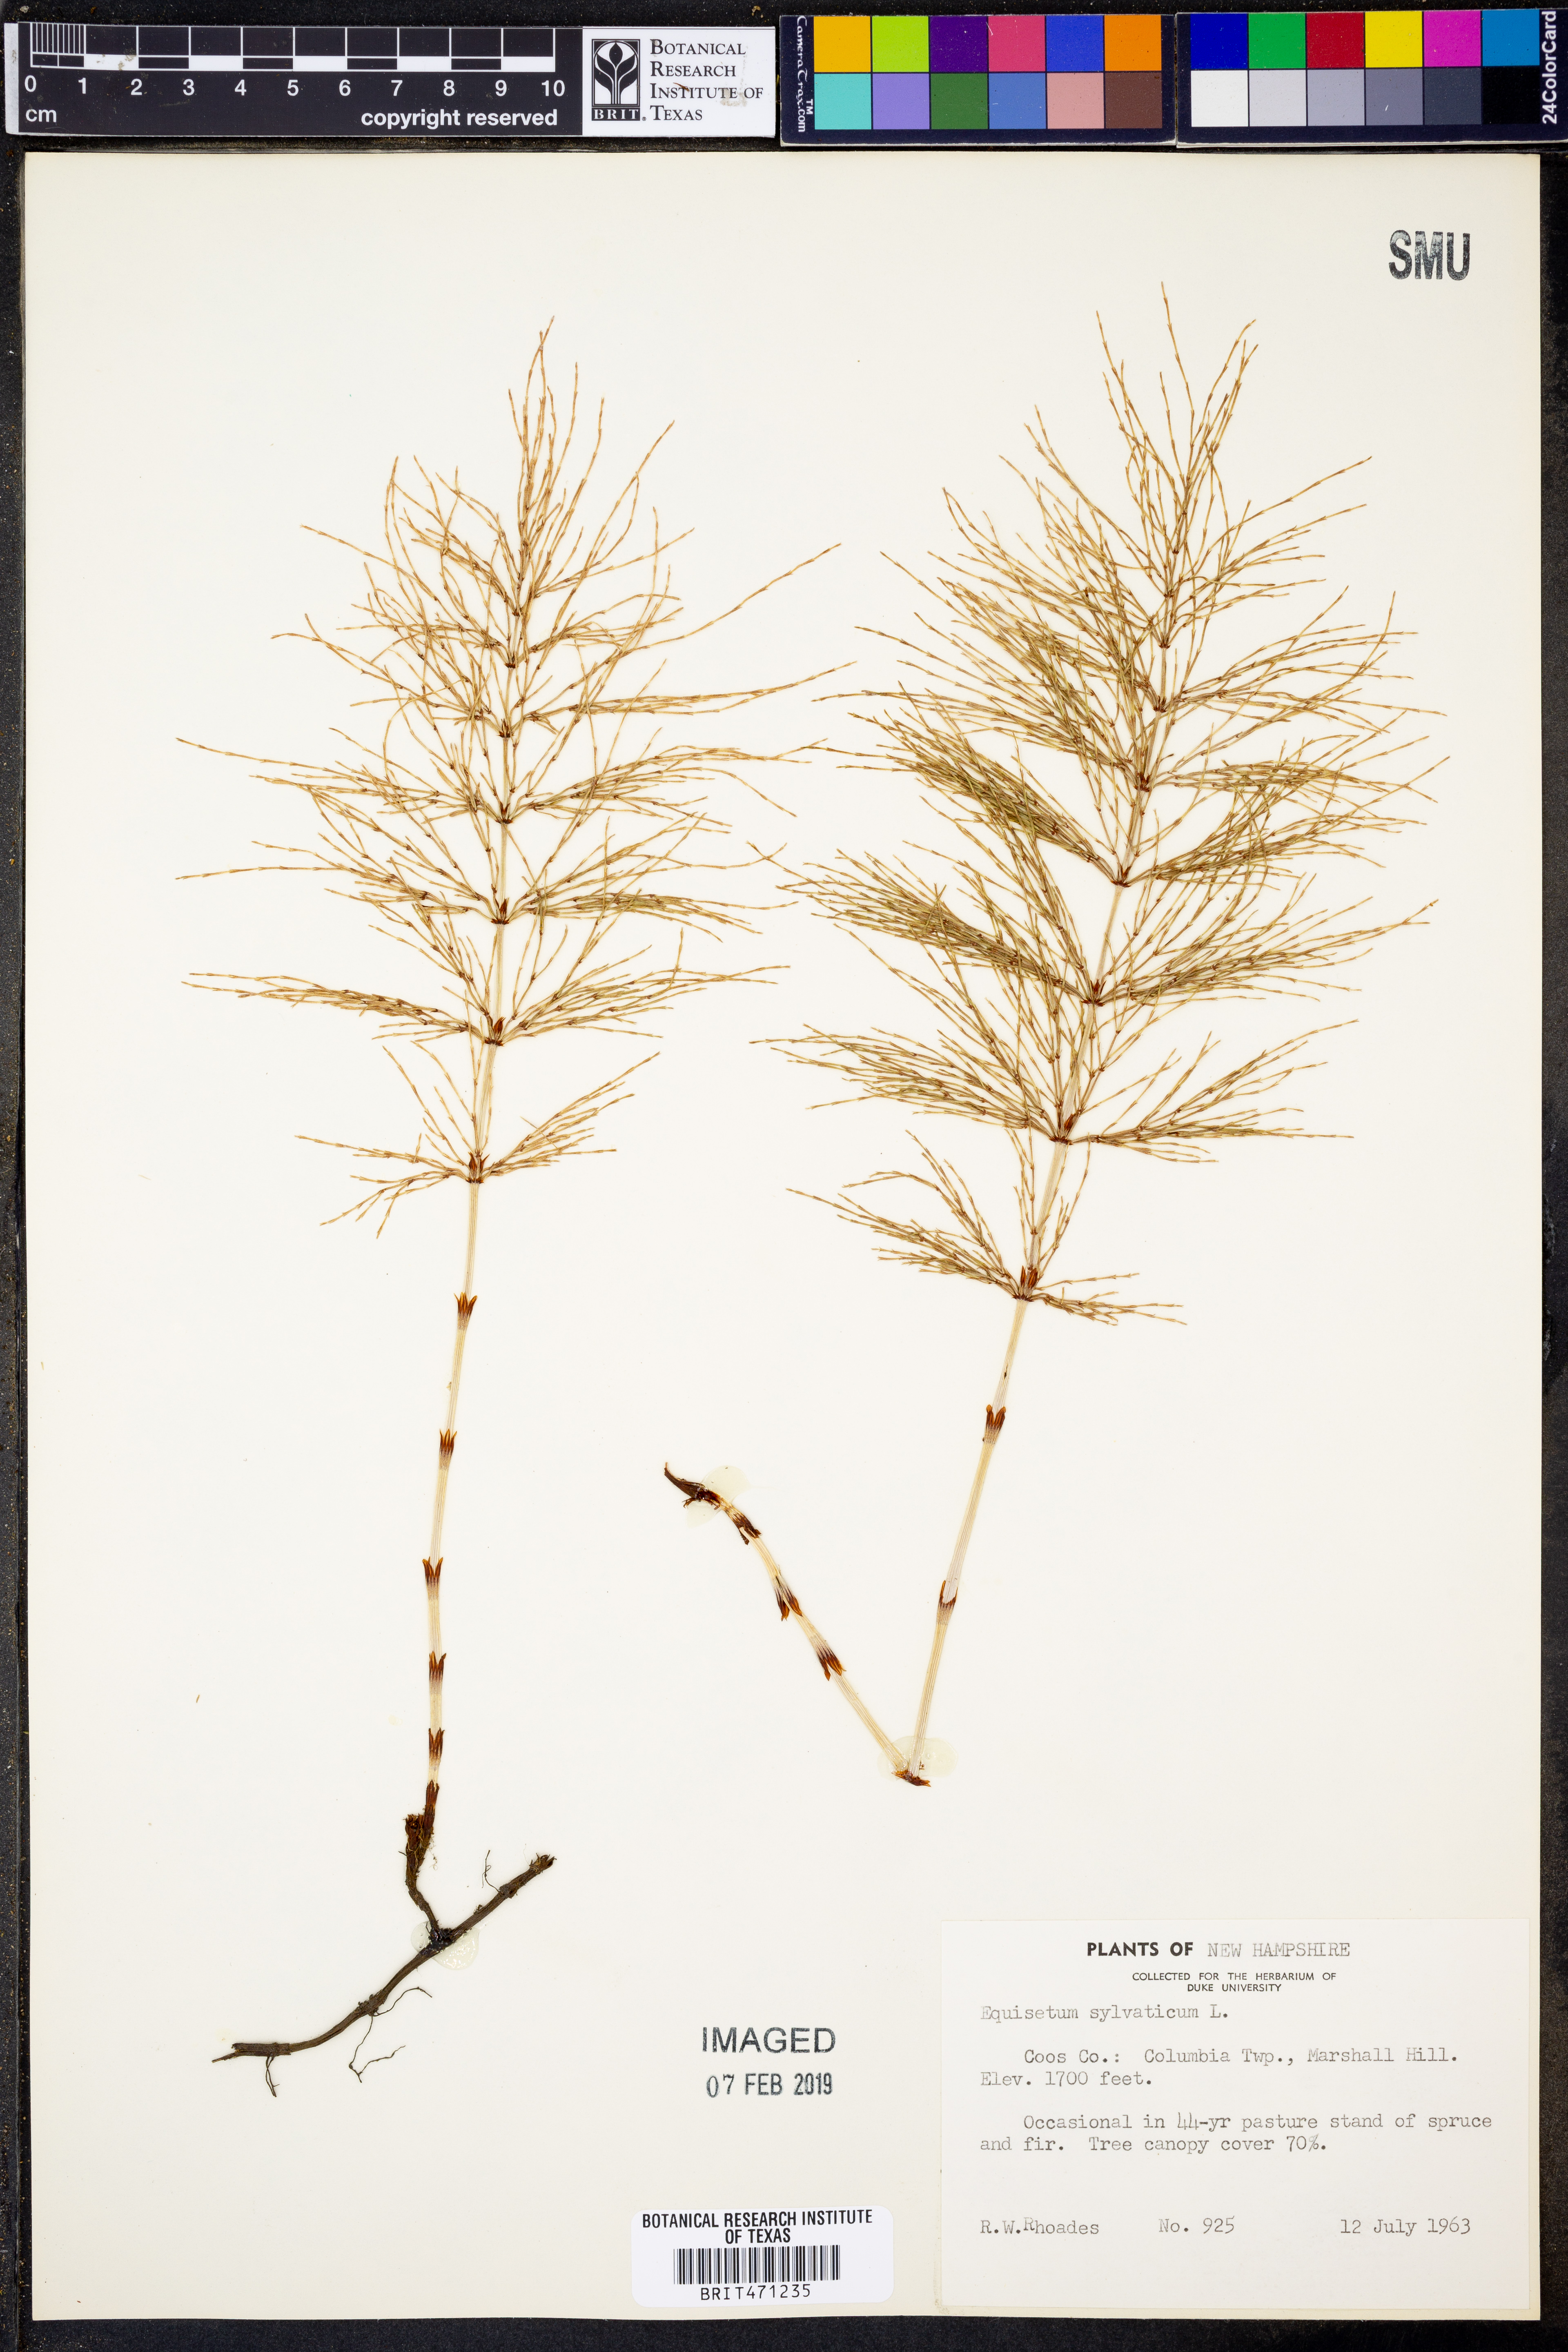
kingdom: Plantae
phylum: Tracheophyta
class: Polypodiopsida
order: Equisetales
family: Equisetaceae
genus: Equisetum
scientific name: Equisetum sylvaticum
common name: Wood horsetail
